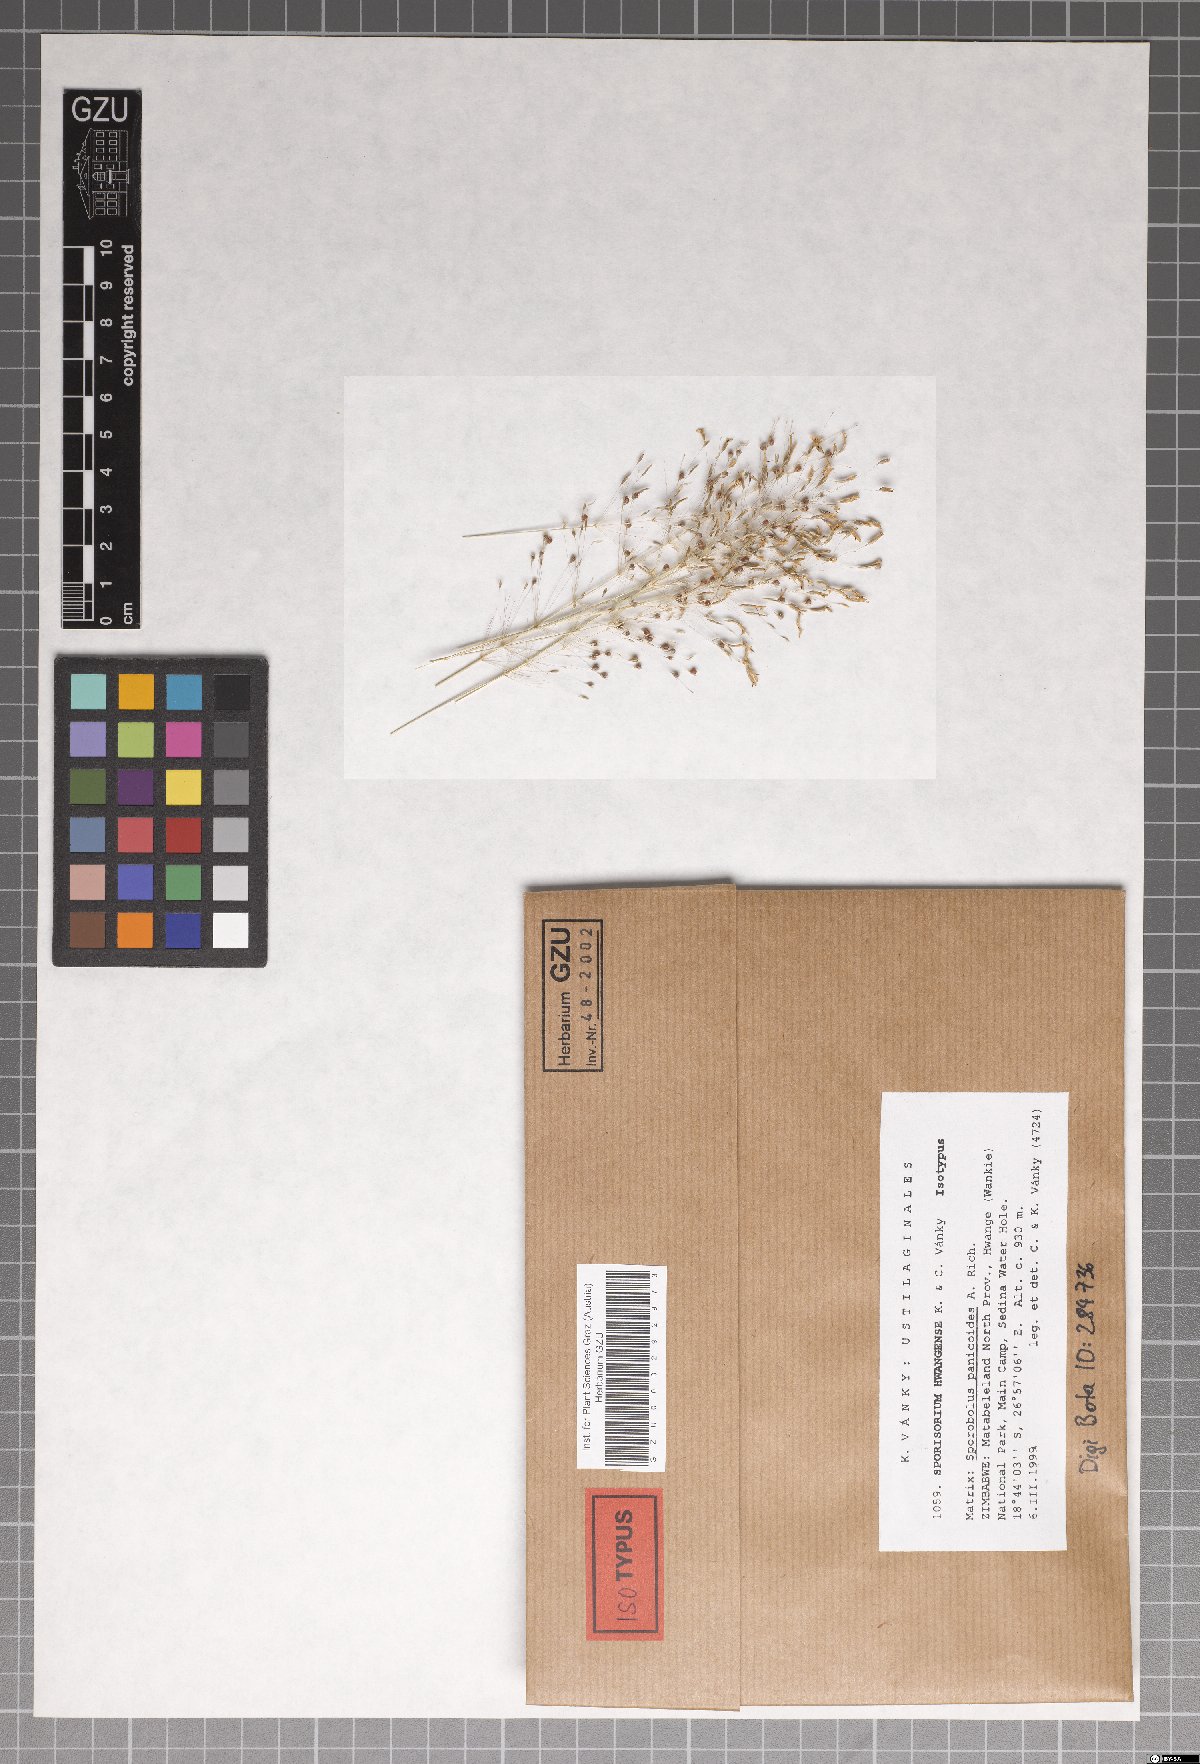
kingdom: Fungi
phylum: Basidiomycota
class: Ustilaginomycetes
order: Ustilaginales
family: Ustilaginaceae
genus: Anthracocystis
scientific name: Anthracocystis hwangensis
